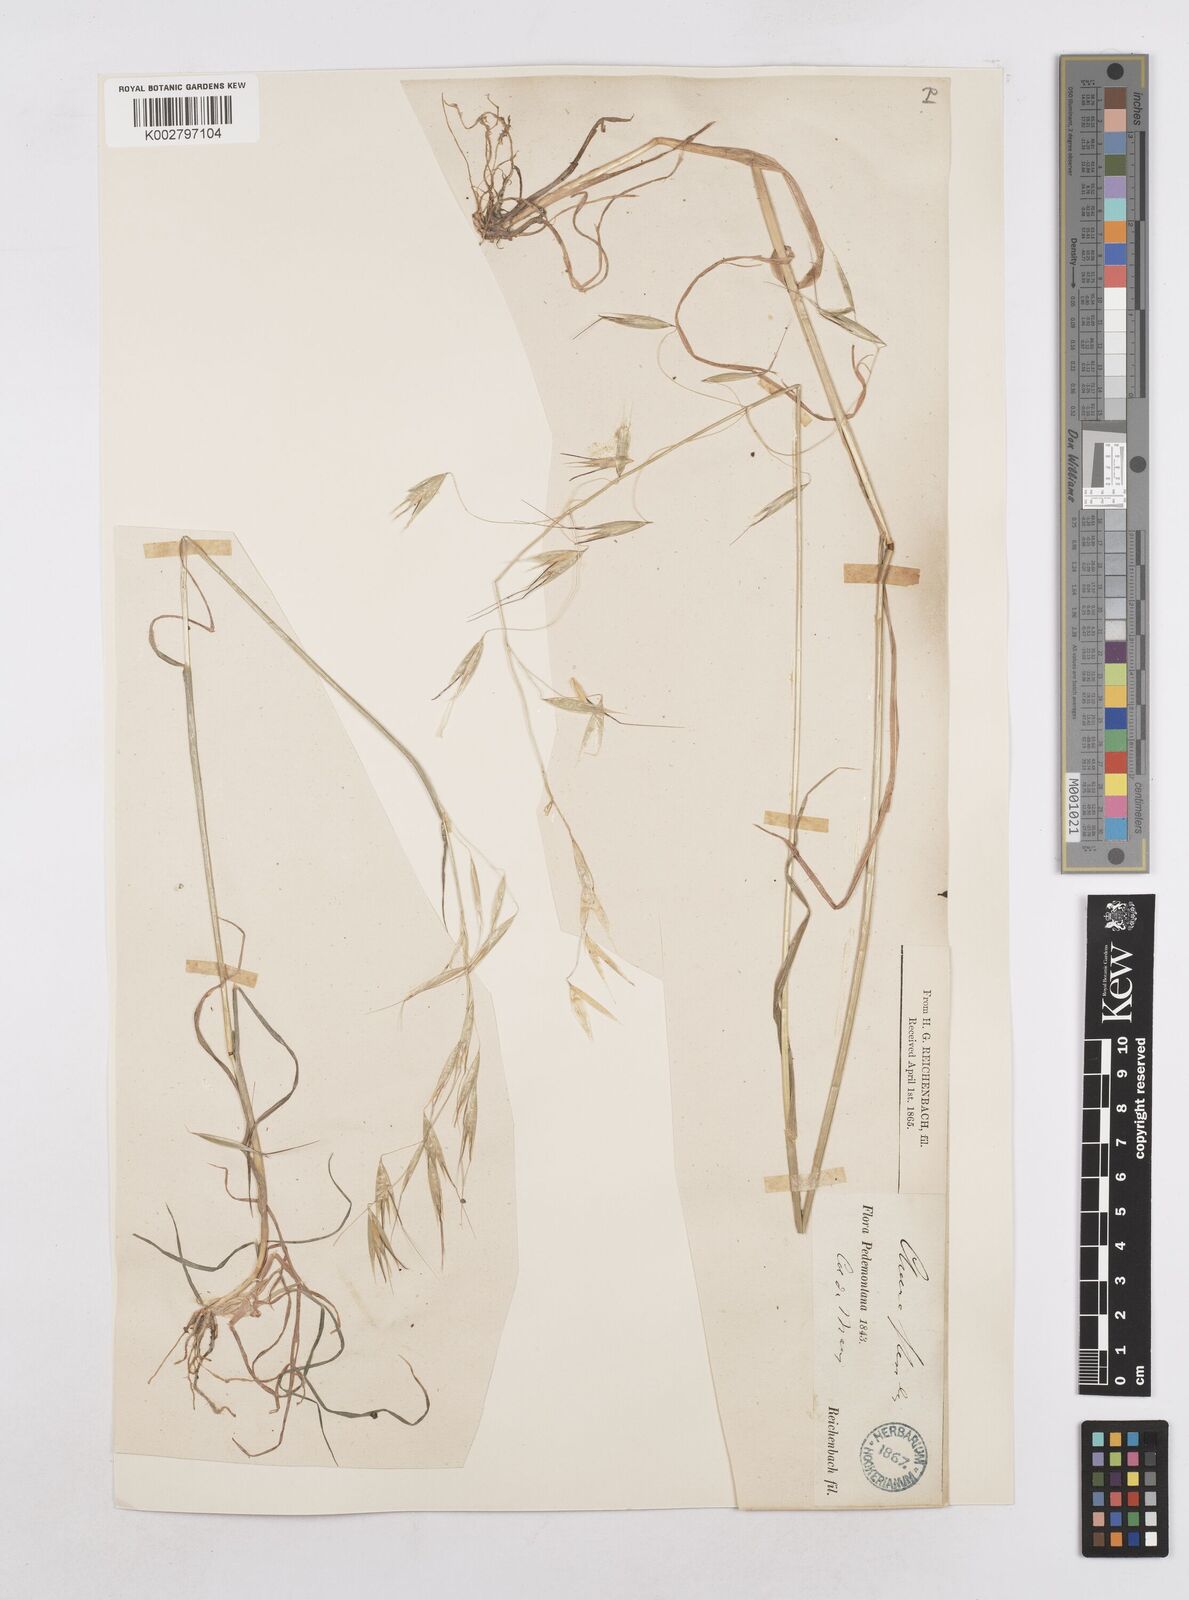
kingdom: Plantae
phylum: Tracheophyta
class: Liliopsida
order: Poales
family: Poaceae
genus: Avena
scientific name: Avena
